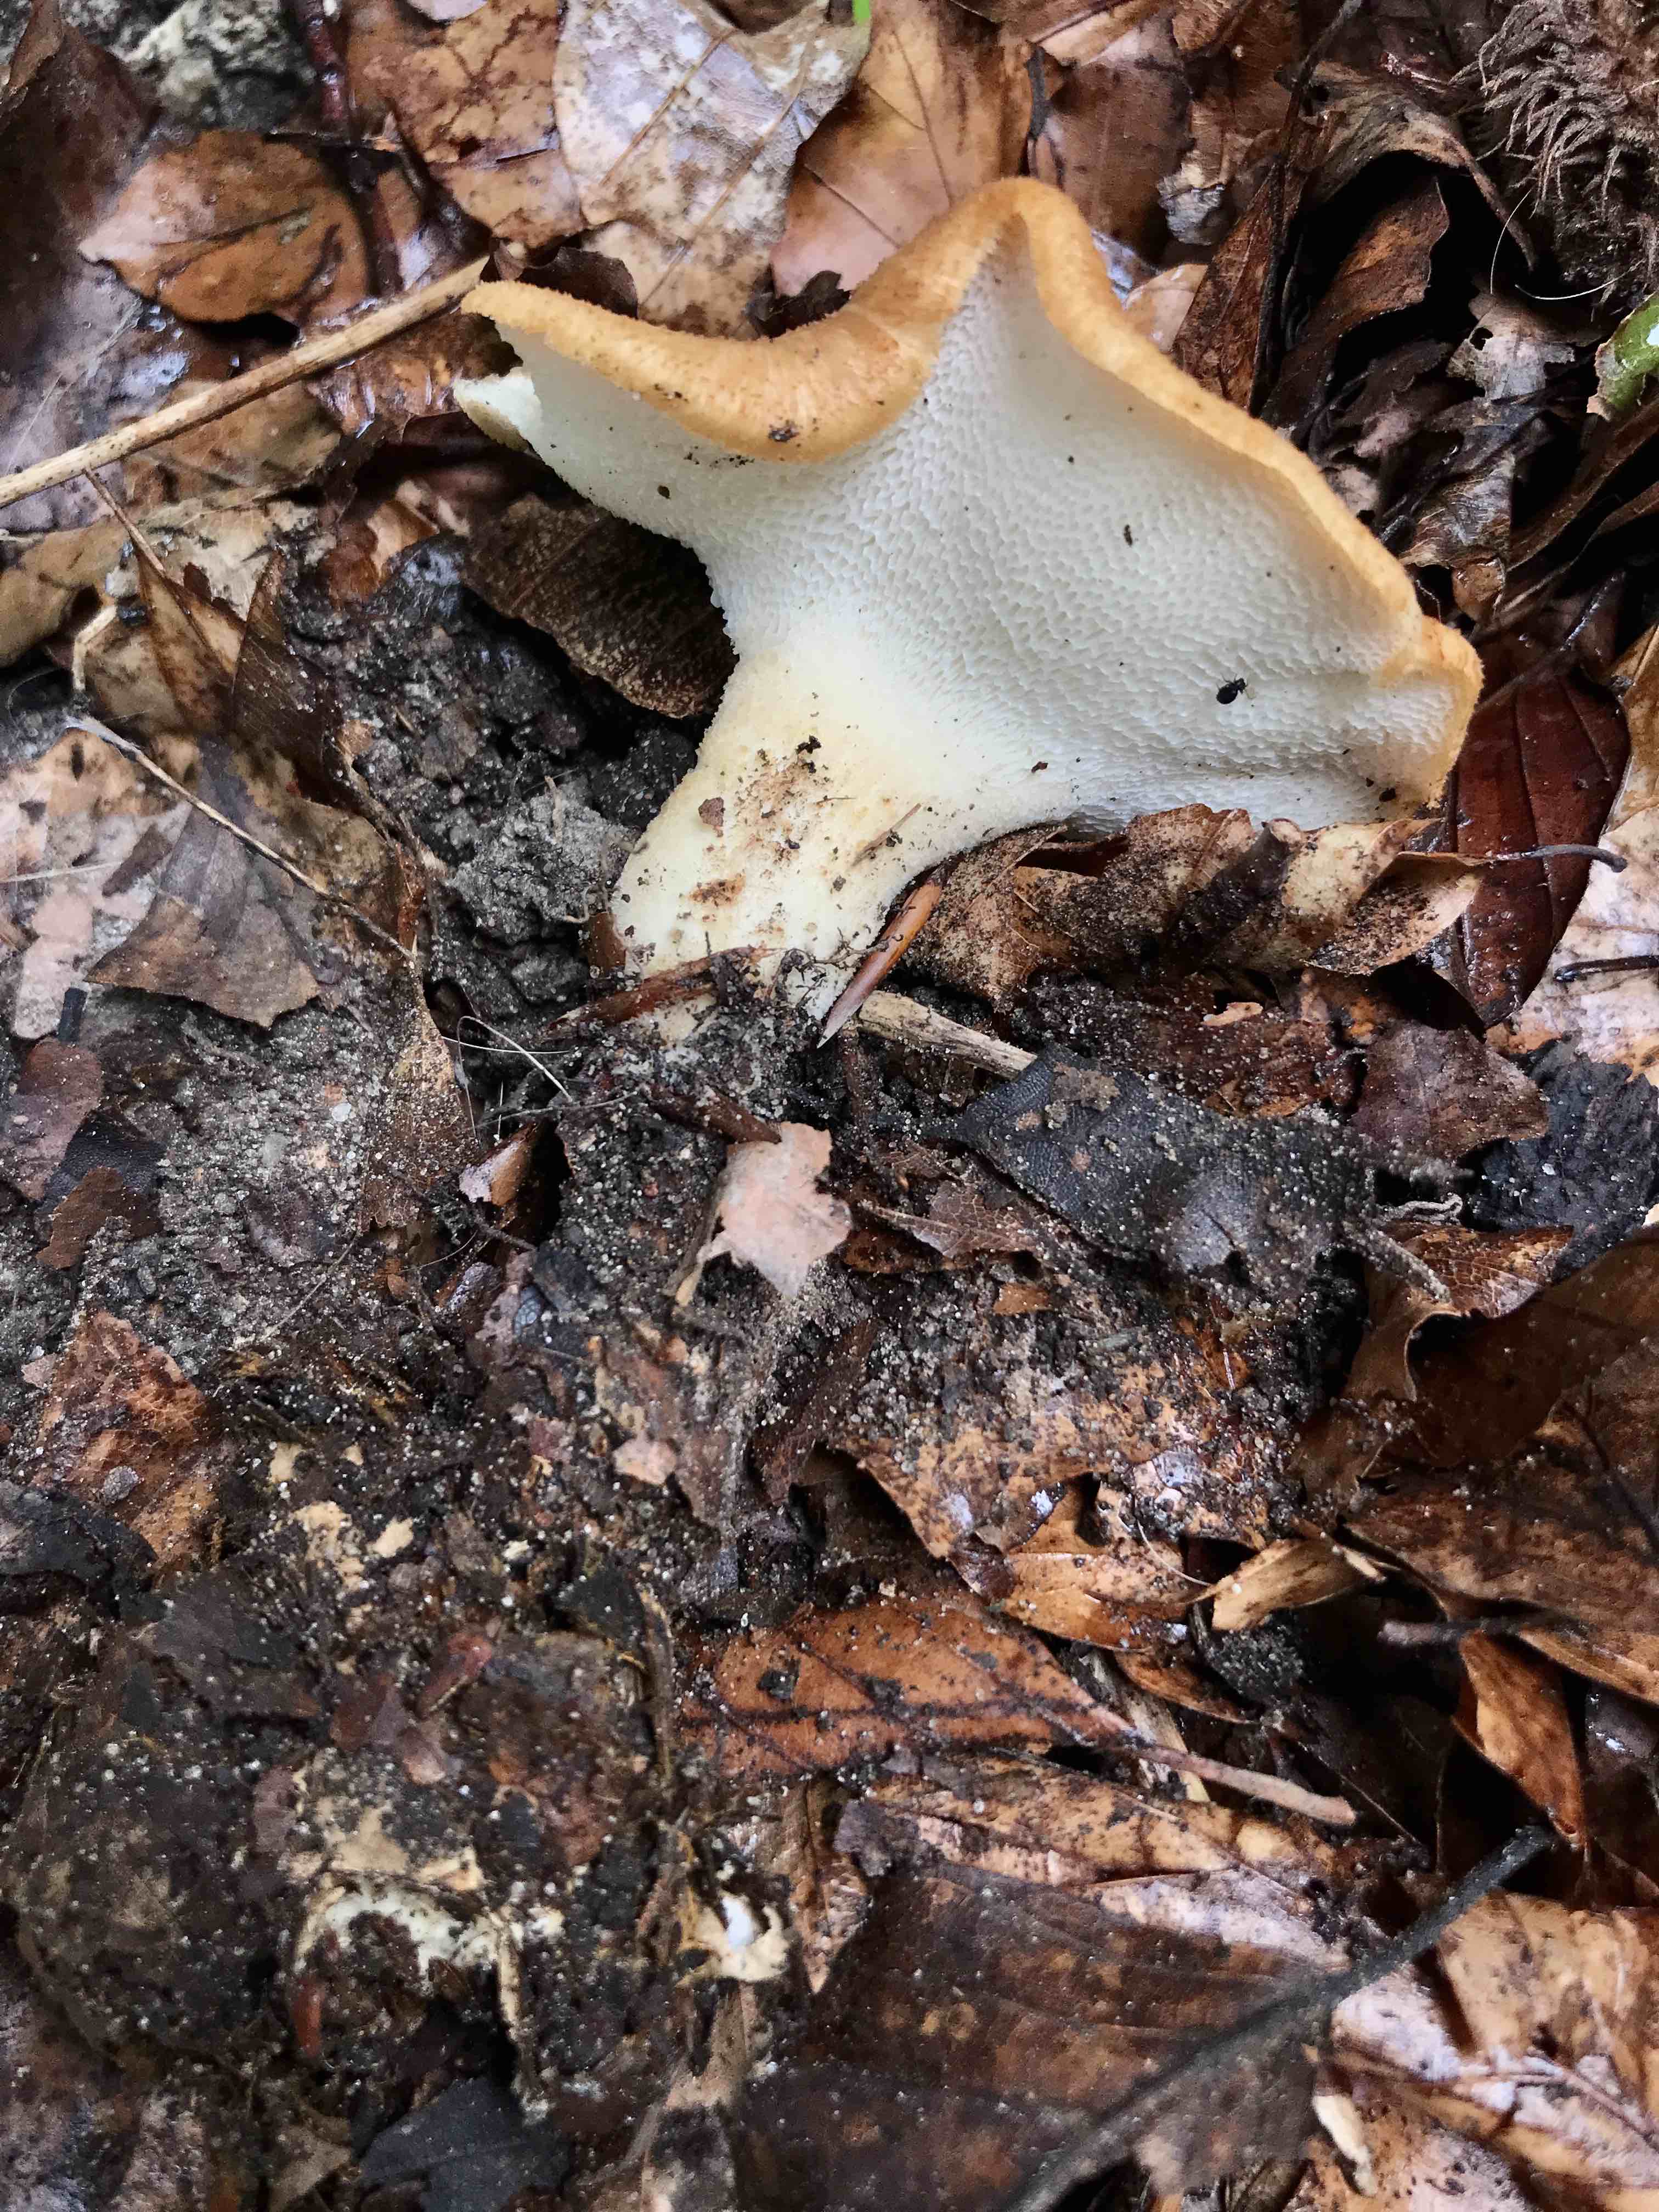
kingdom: Fungi
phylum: Basidiomycota
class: Agaricomycetes
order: Polyporales
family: Polyporaceae
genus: Polyporus
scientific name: Polyporus tuberaster
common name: knoldet stilkporesvamp
